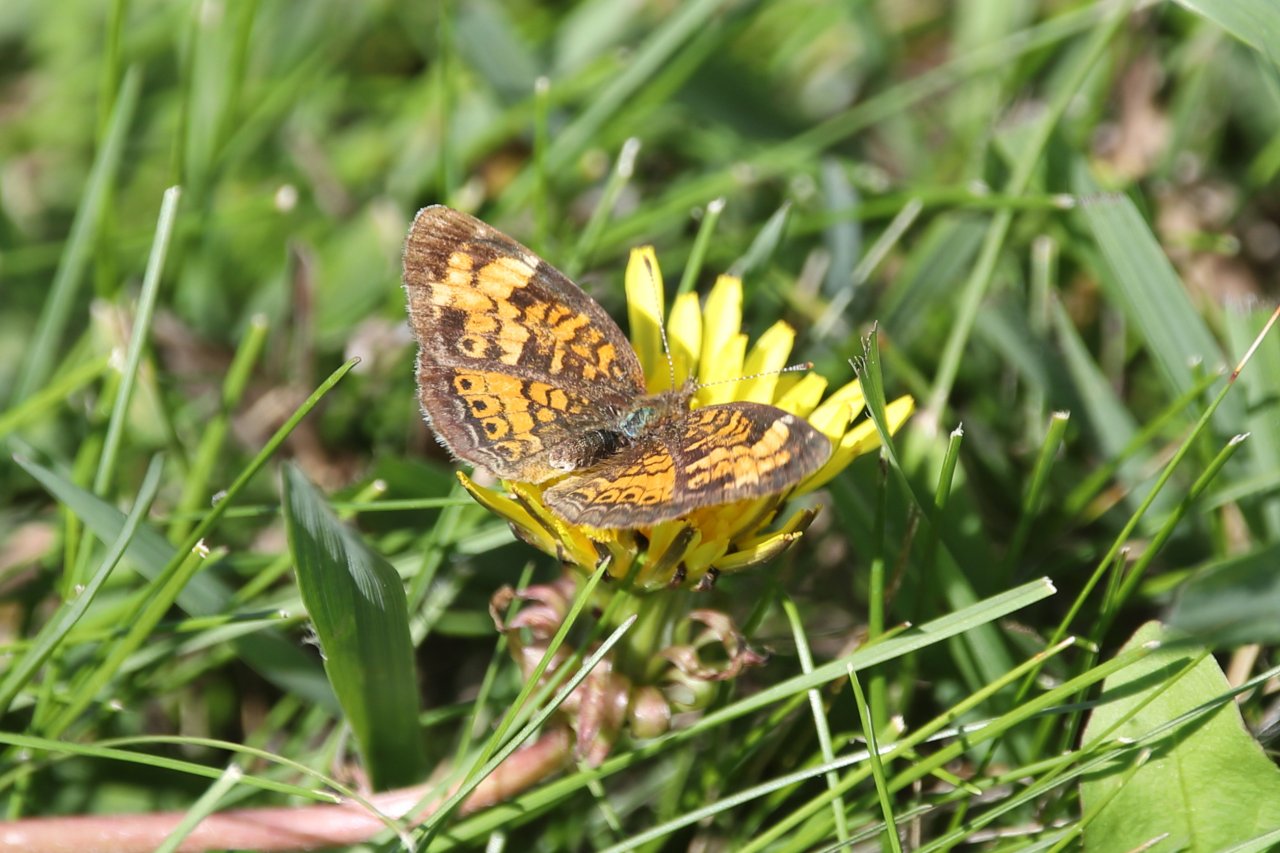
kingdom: Animalia
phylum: Arthropoda
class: Insecta
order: Lepidoptera
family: Nymphalidae
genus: Phyciodes
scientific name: Phyciodes tharos
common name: Pearl Crescent
